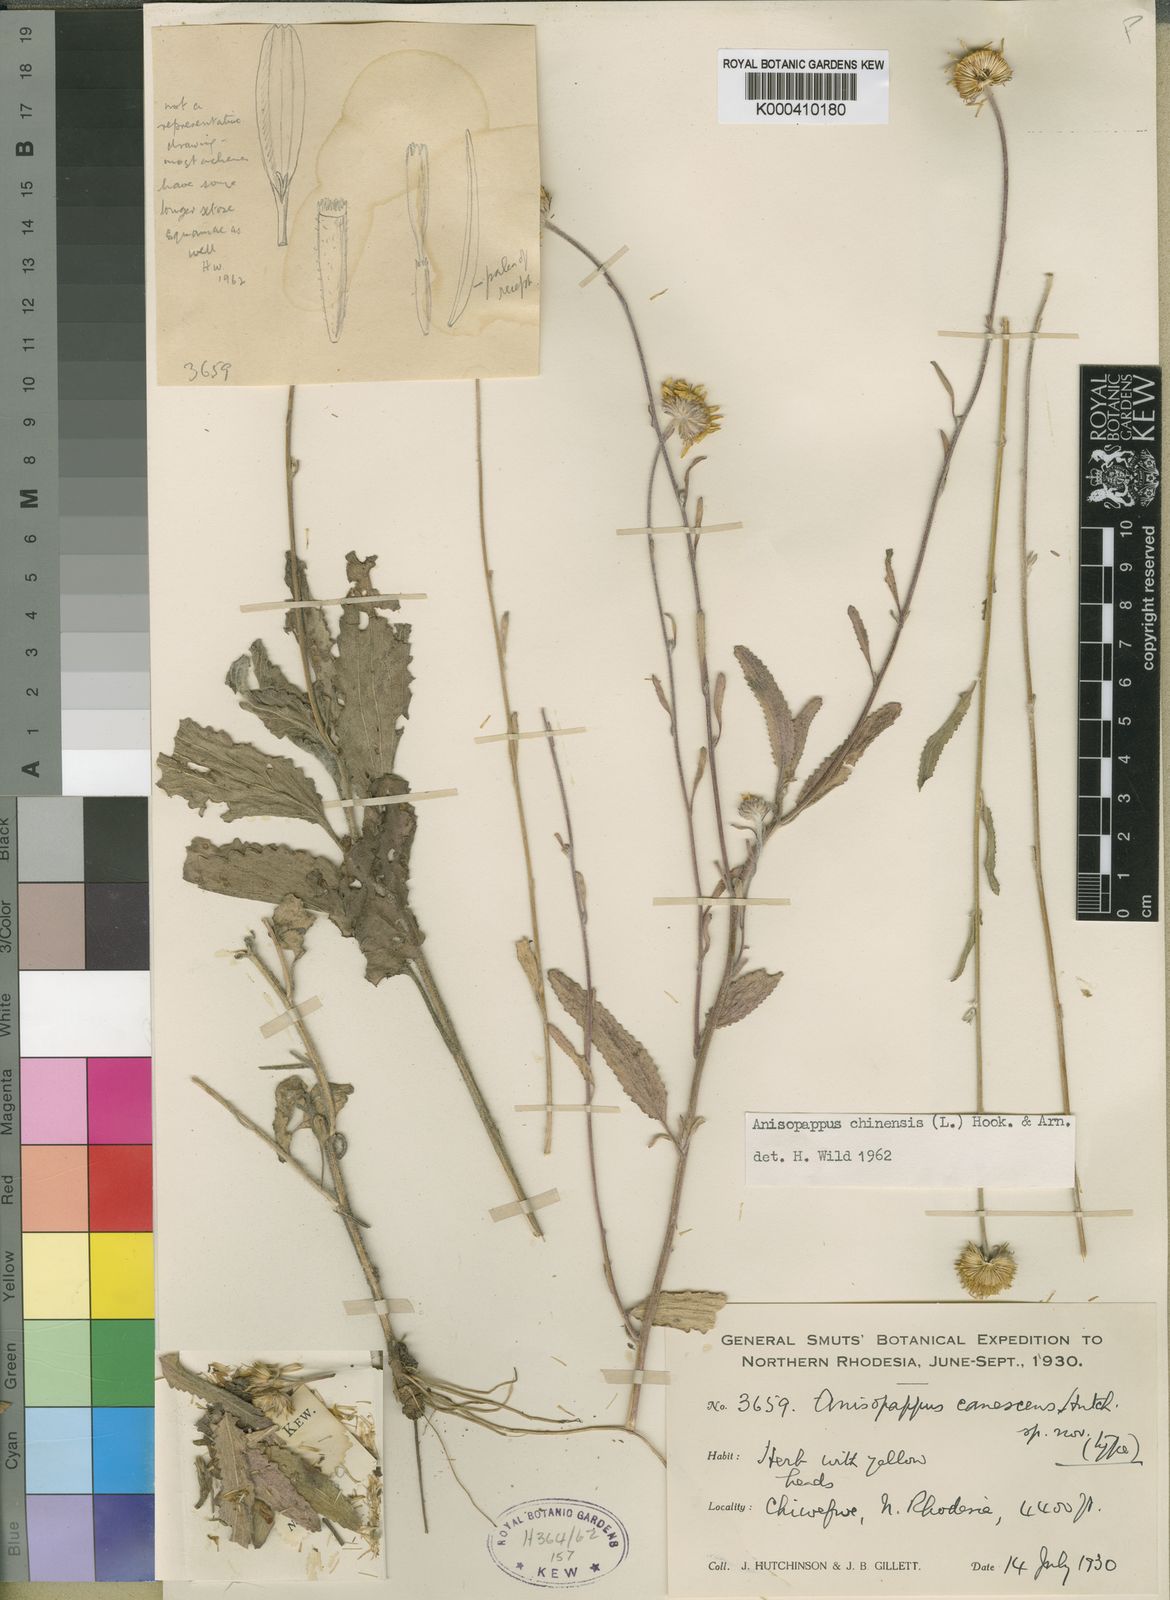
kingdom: Plantae
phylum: Tracheophyta
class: Magnoliopsida
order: Asterales
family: Asteraceae
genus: Anisopappus
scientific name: Anisopappus chinensis
